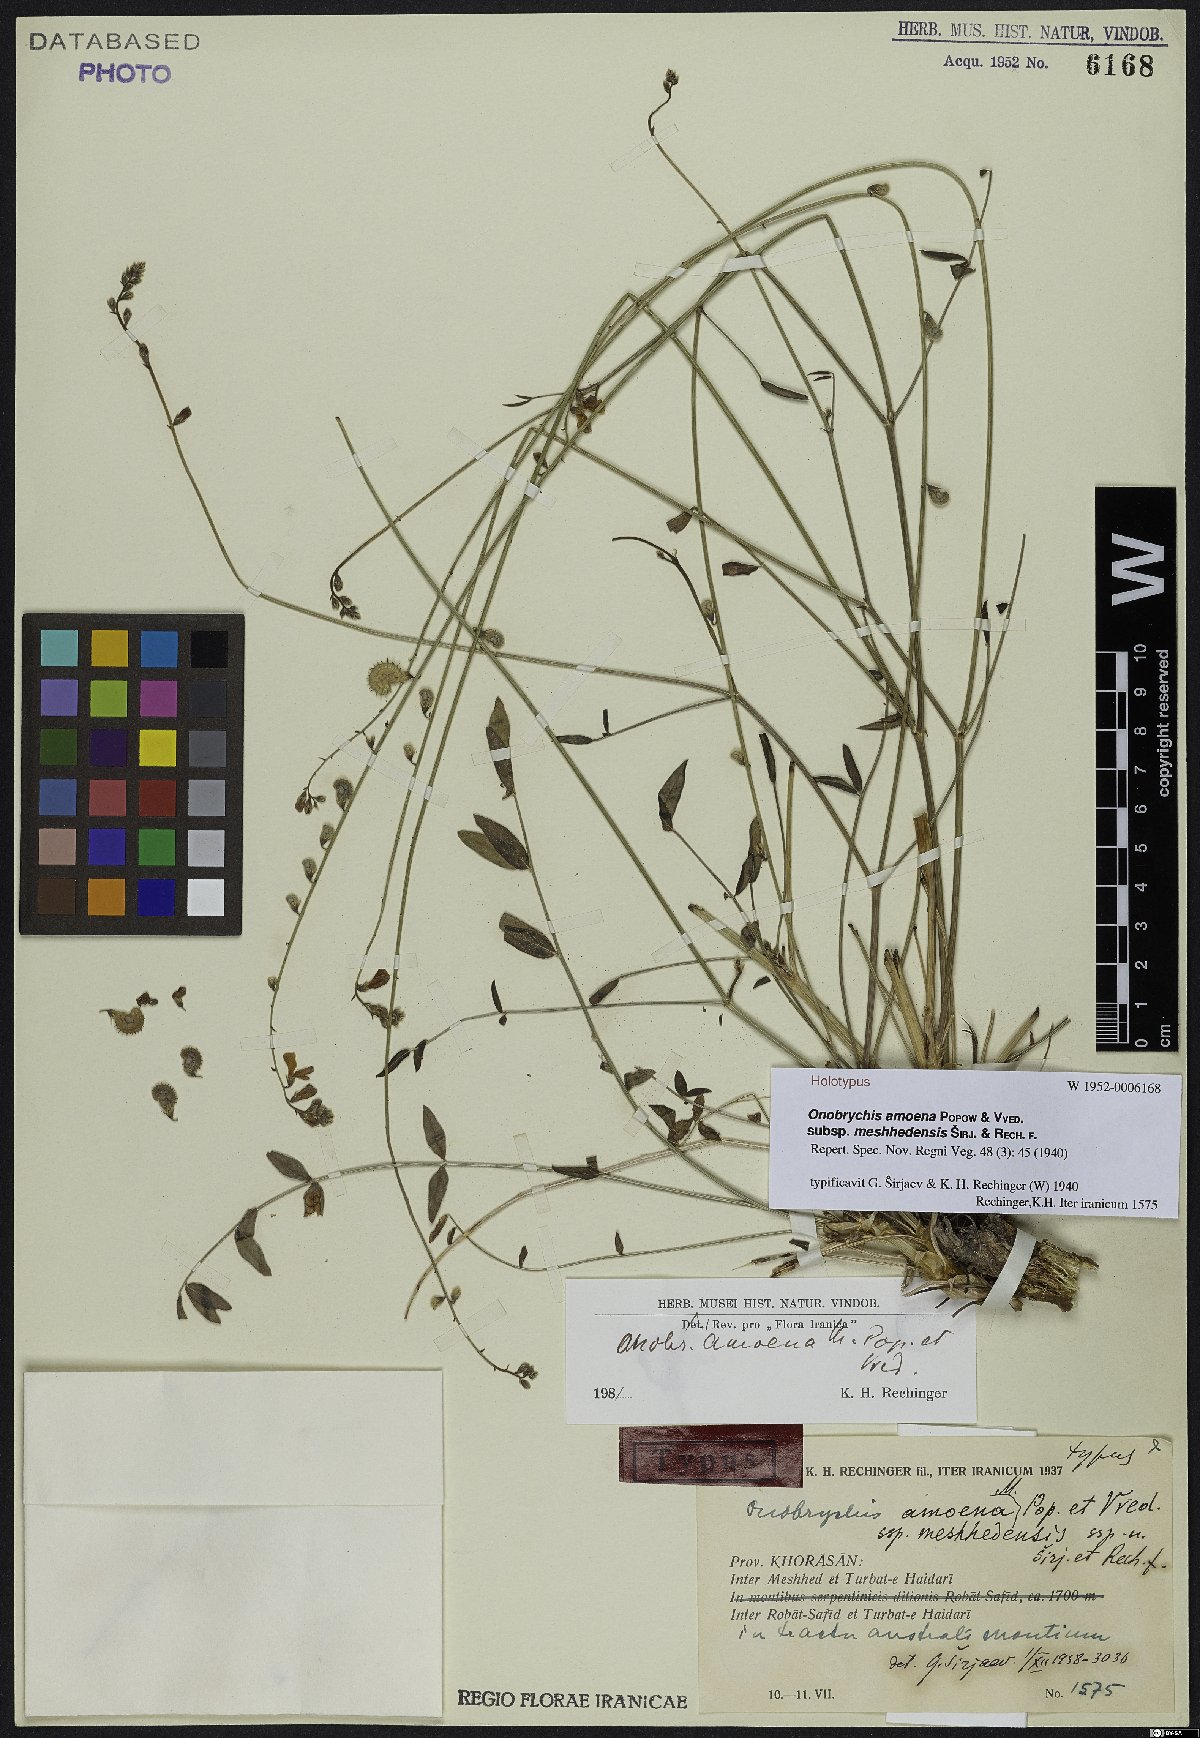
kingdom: Plantae
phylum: Tracheophyta
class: Magnoliopsida
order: Fabales
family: Fabaceae
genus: Onobrychis
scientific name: Onobrychis meshhedensis
